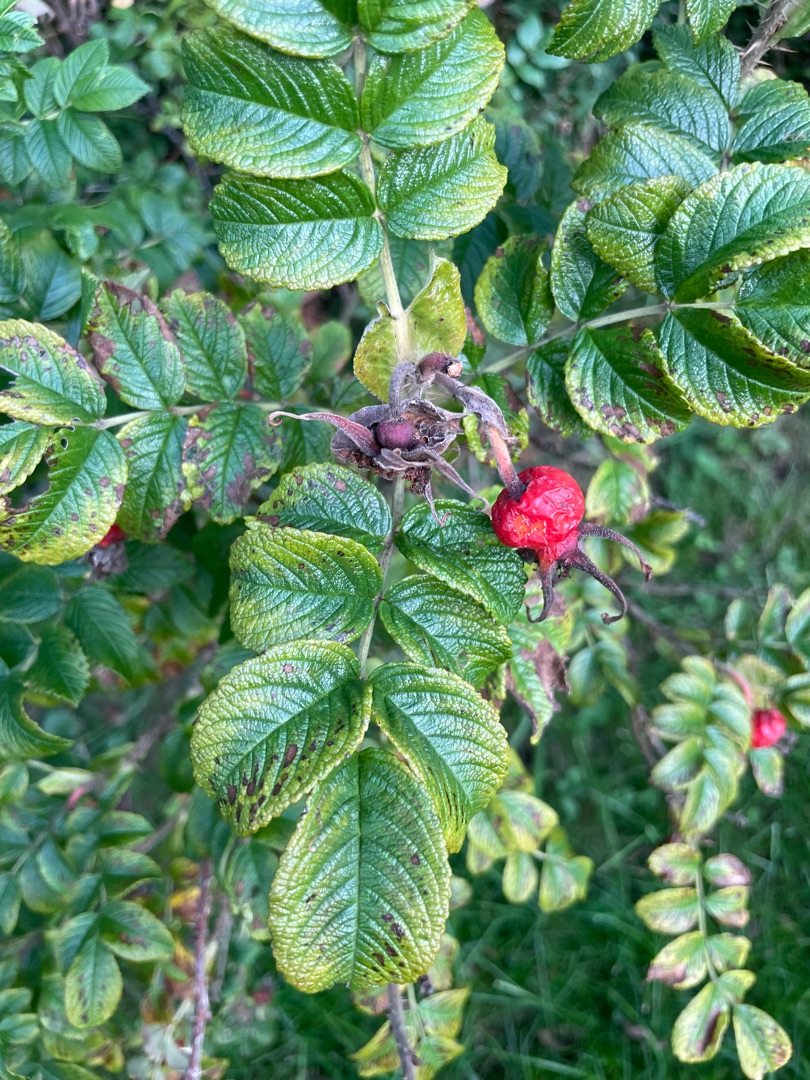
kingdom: Plantae
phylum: Tracheophyta
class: Magnoliopsida
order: Rosales
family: Rosaceae
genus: Rosa
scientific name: Rosa rugosa
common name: Rynket rose
